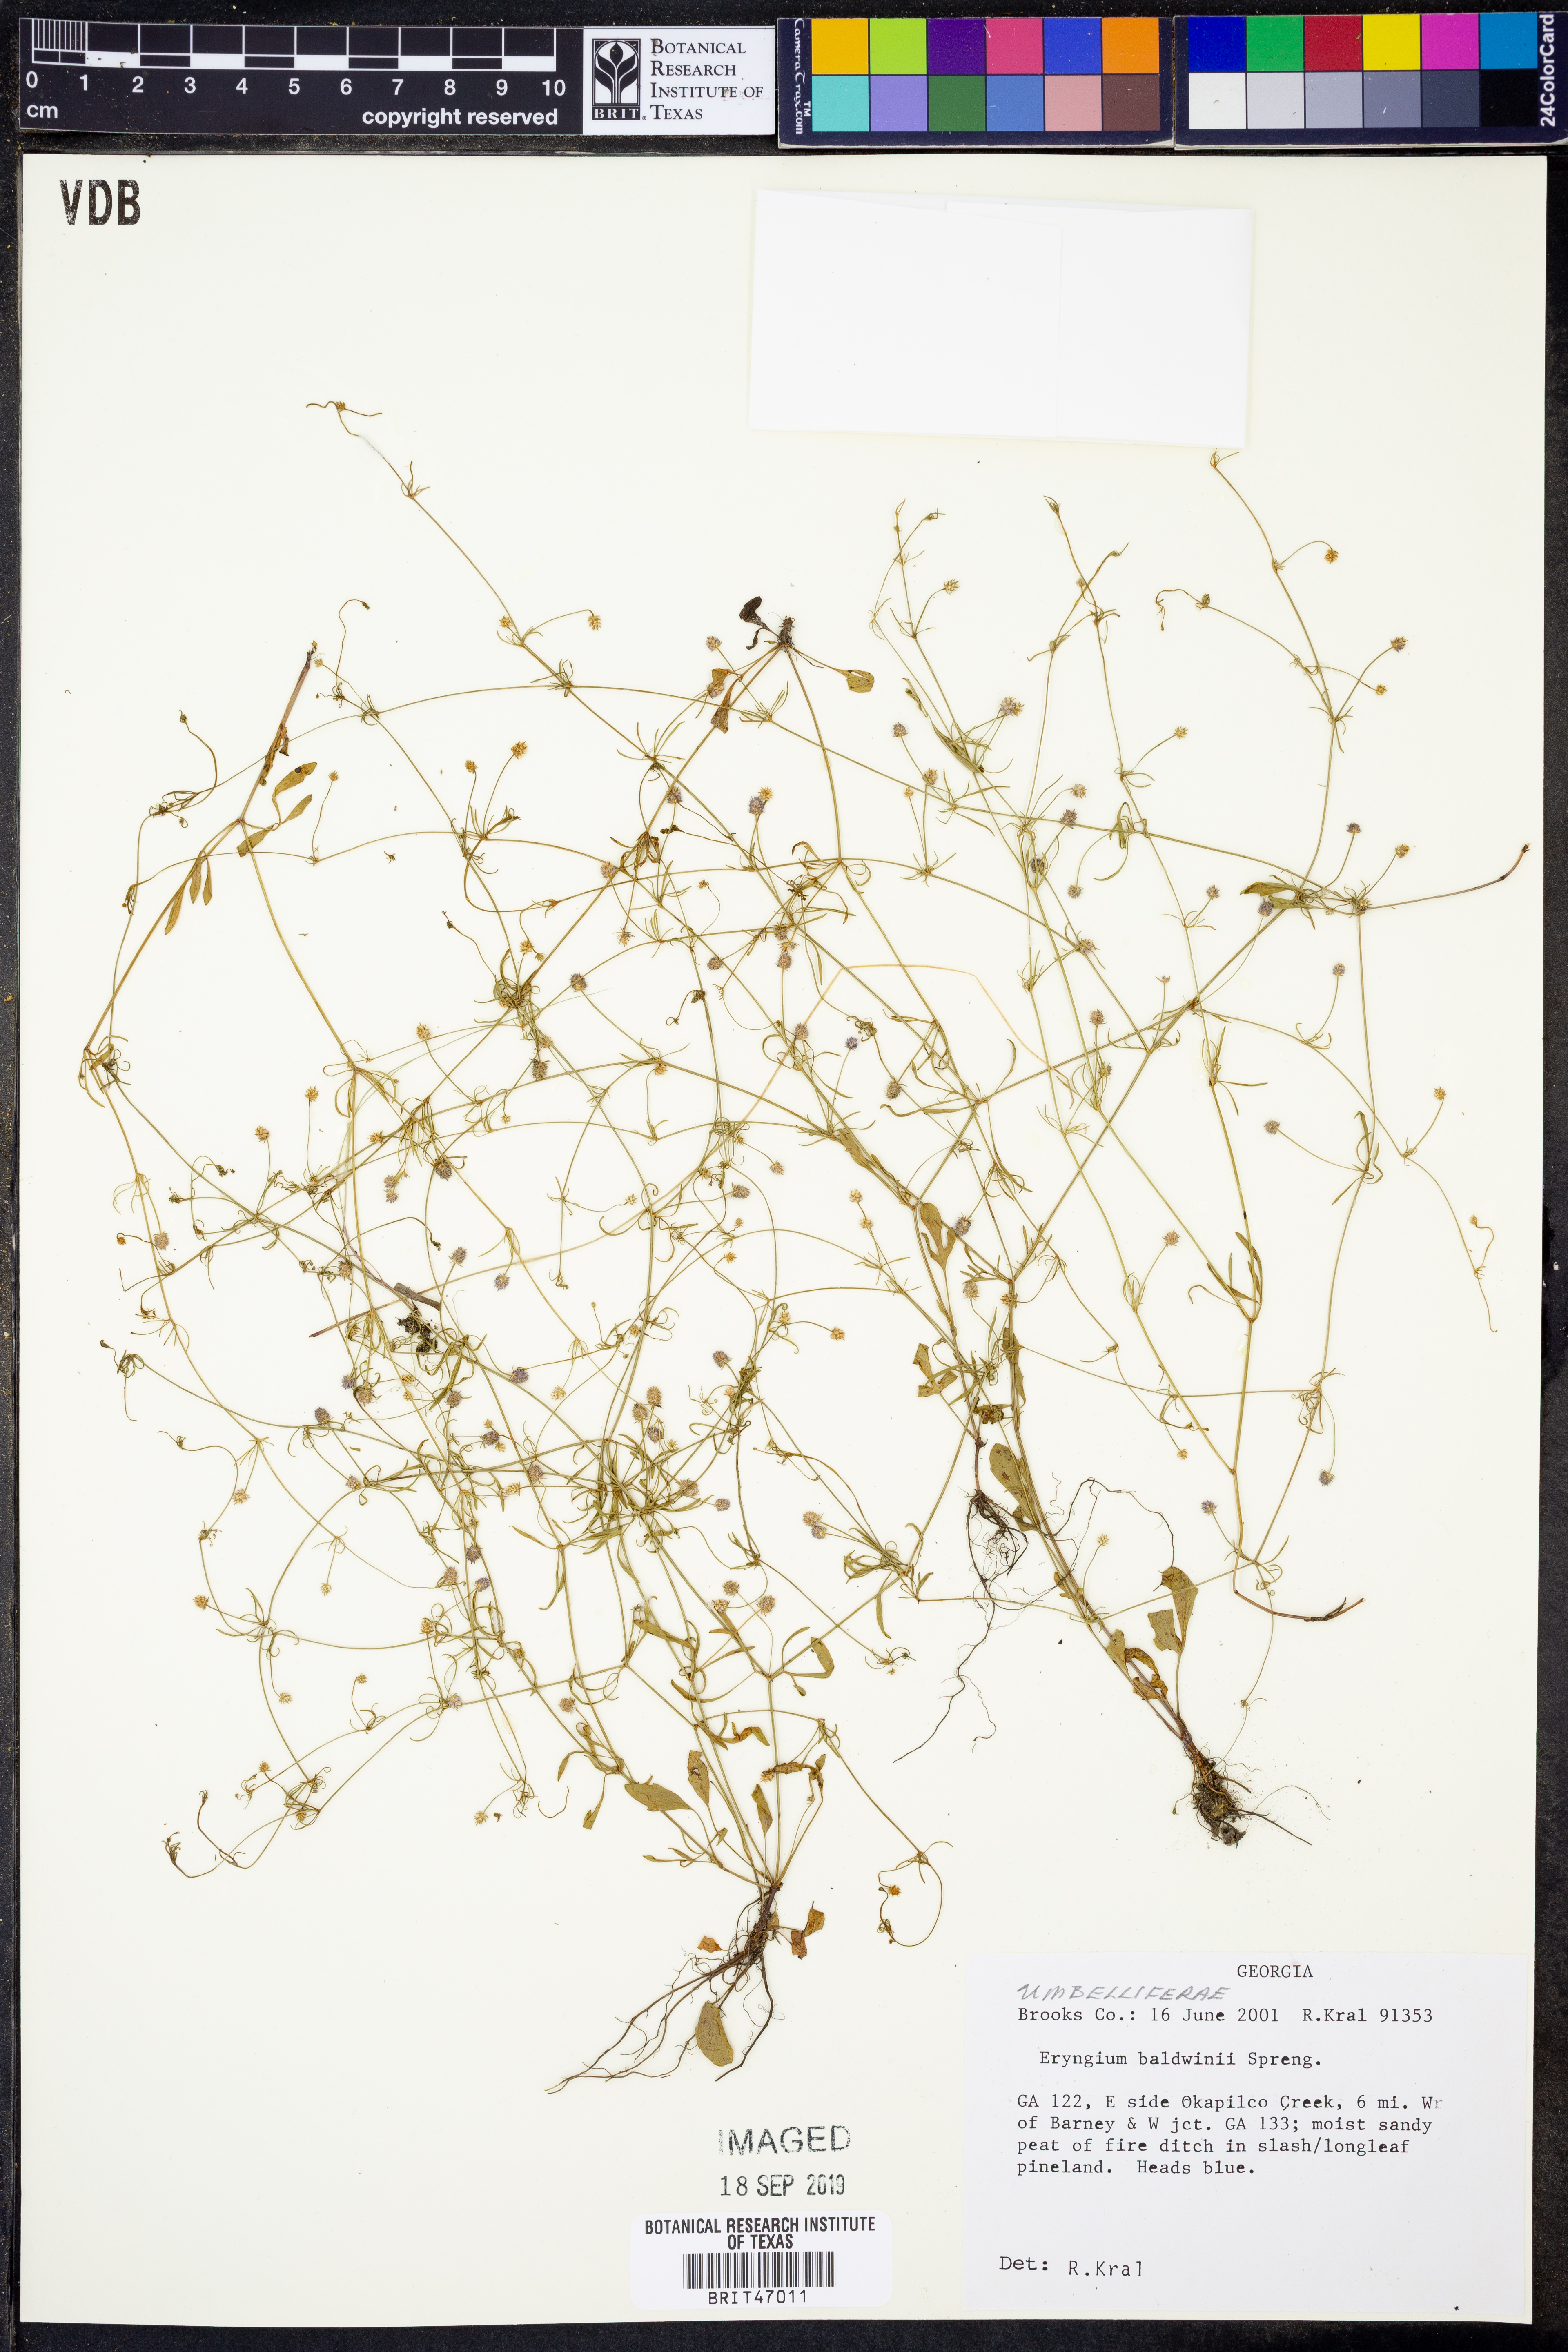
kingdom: Plantae
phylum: Tracheophyta
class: Magnoliopsida
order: Apiales
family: Apiaceae
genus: Eryngium
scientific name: Eryngium baldwinii
